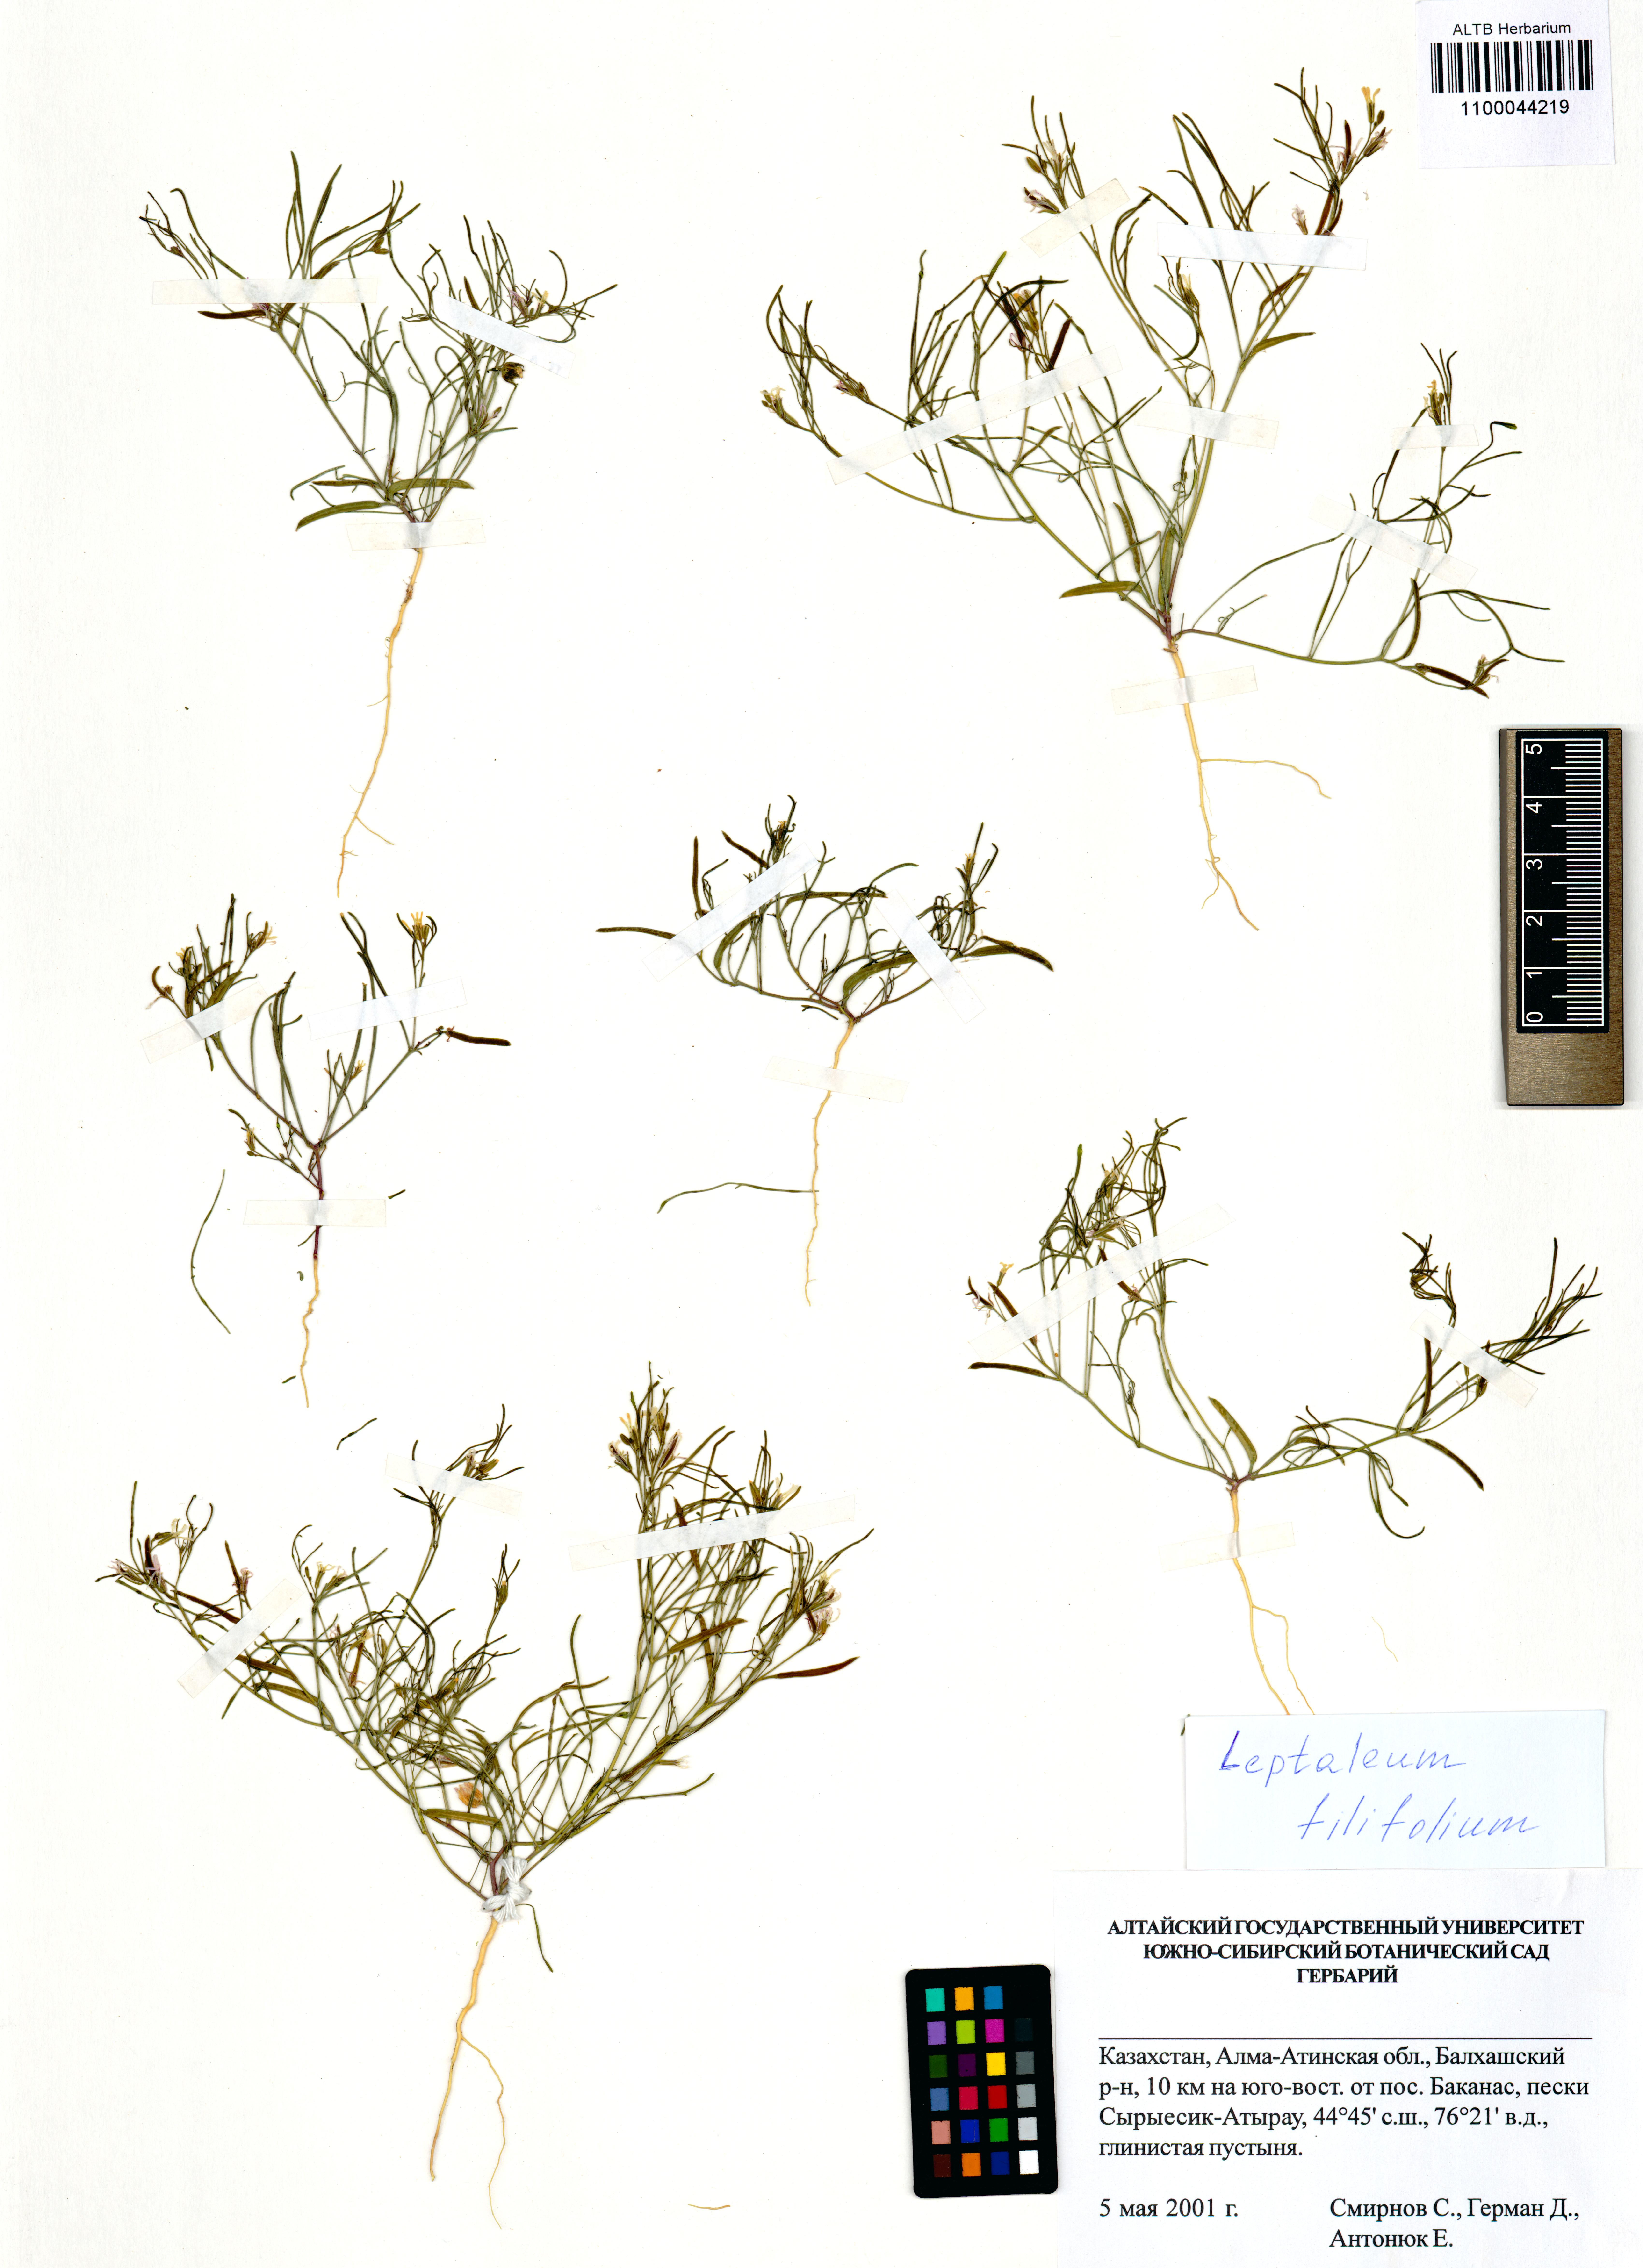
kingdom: Plantae
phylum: Tracheophyta
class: Magnoliopsida
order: Brassicales
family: Brassicaceae
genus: Leptaleum
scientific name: Leptaleum filifolium
